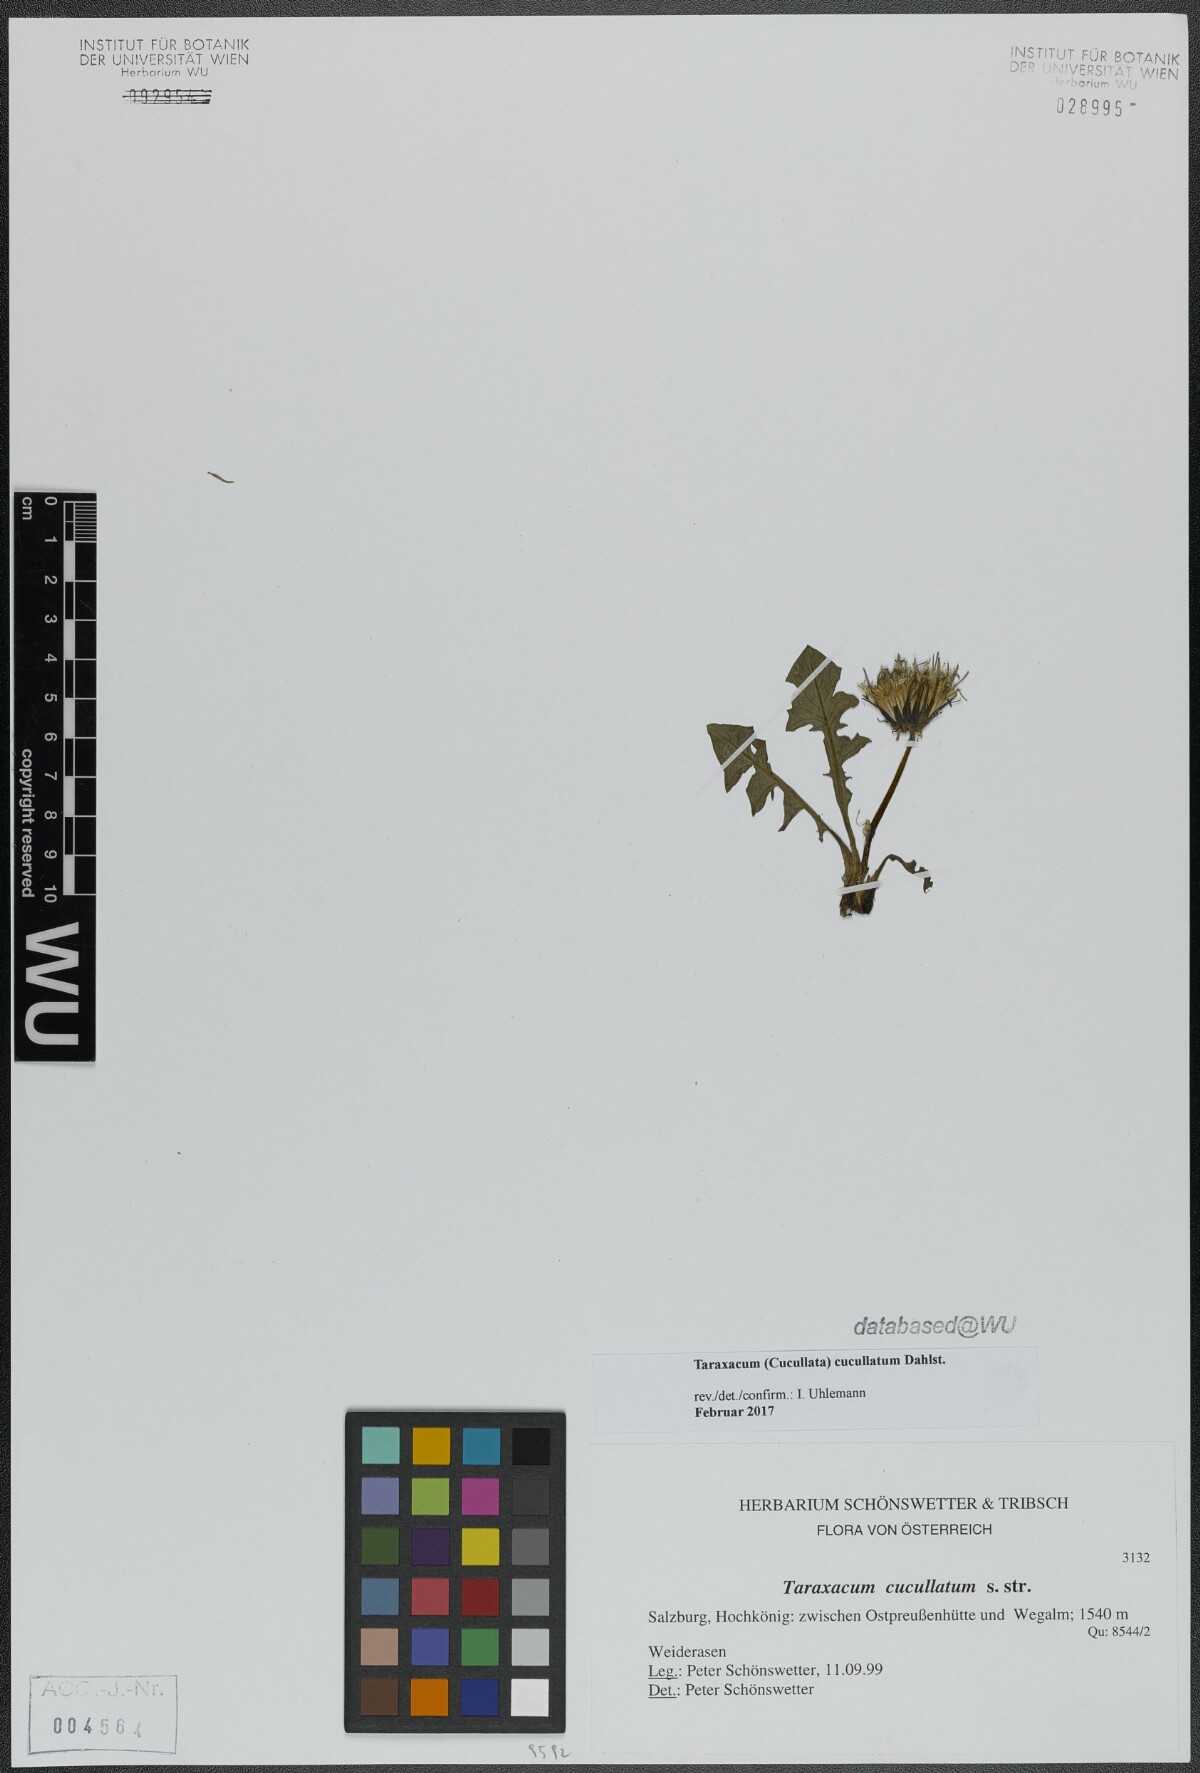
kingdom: Plantae
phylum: Tracheophyta
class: Magnoliopsida
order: Asterales
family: Asteraceae
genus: Taraxacum
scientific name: Taraxacum cucullatum
